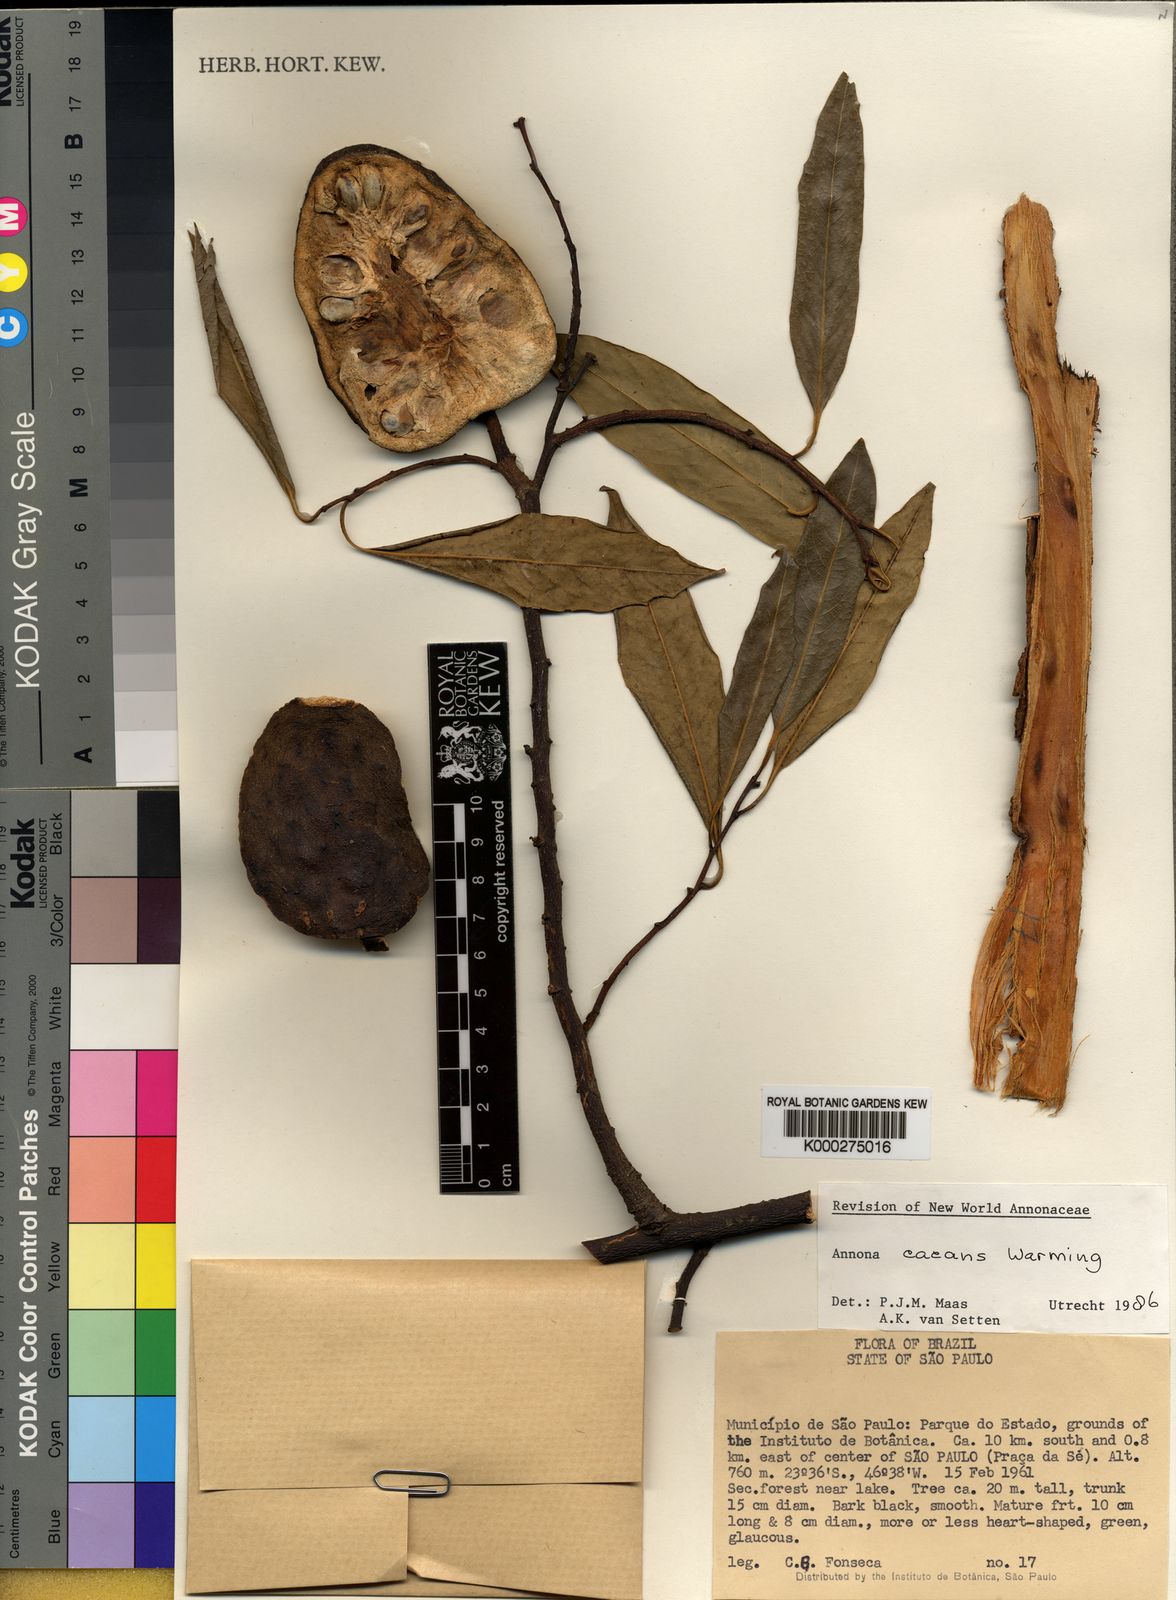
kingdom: Plantae
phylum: Tracheophyta
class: Magnoliopsida
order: Magnoliales
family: Annonaceae
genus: Annona
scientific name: Annona crassiflora
